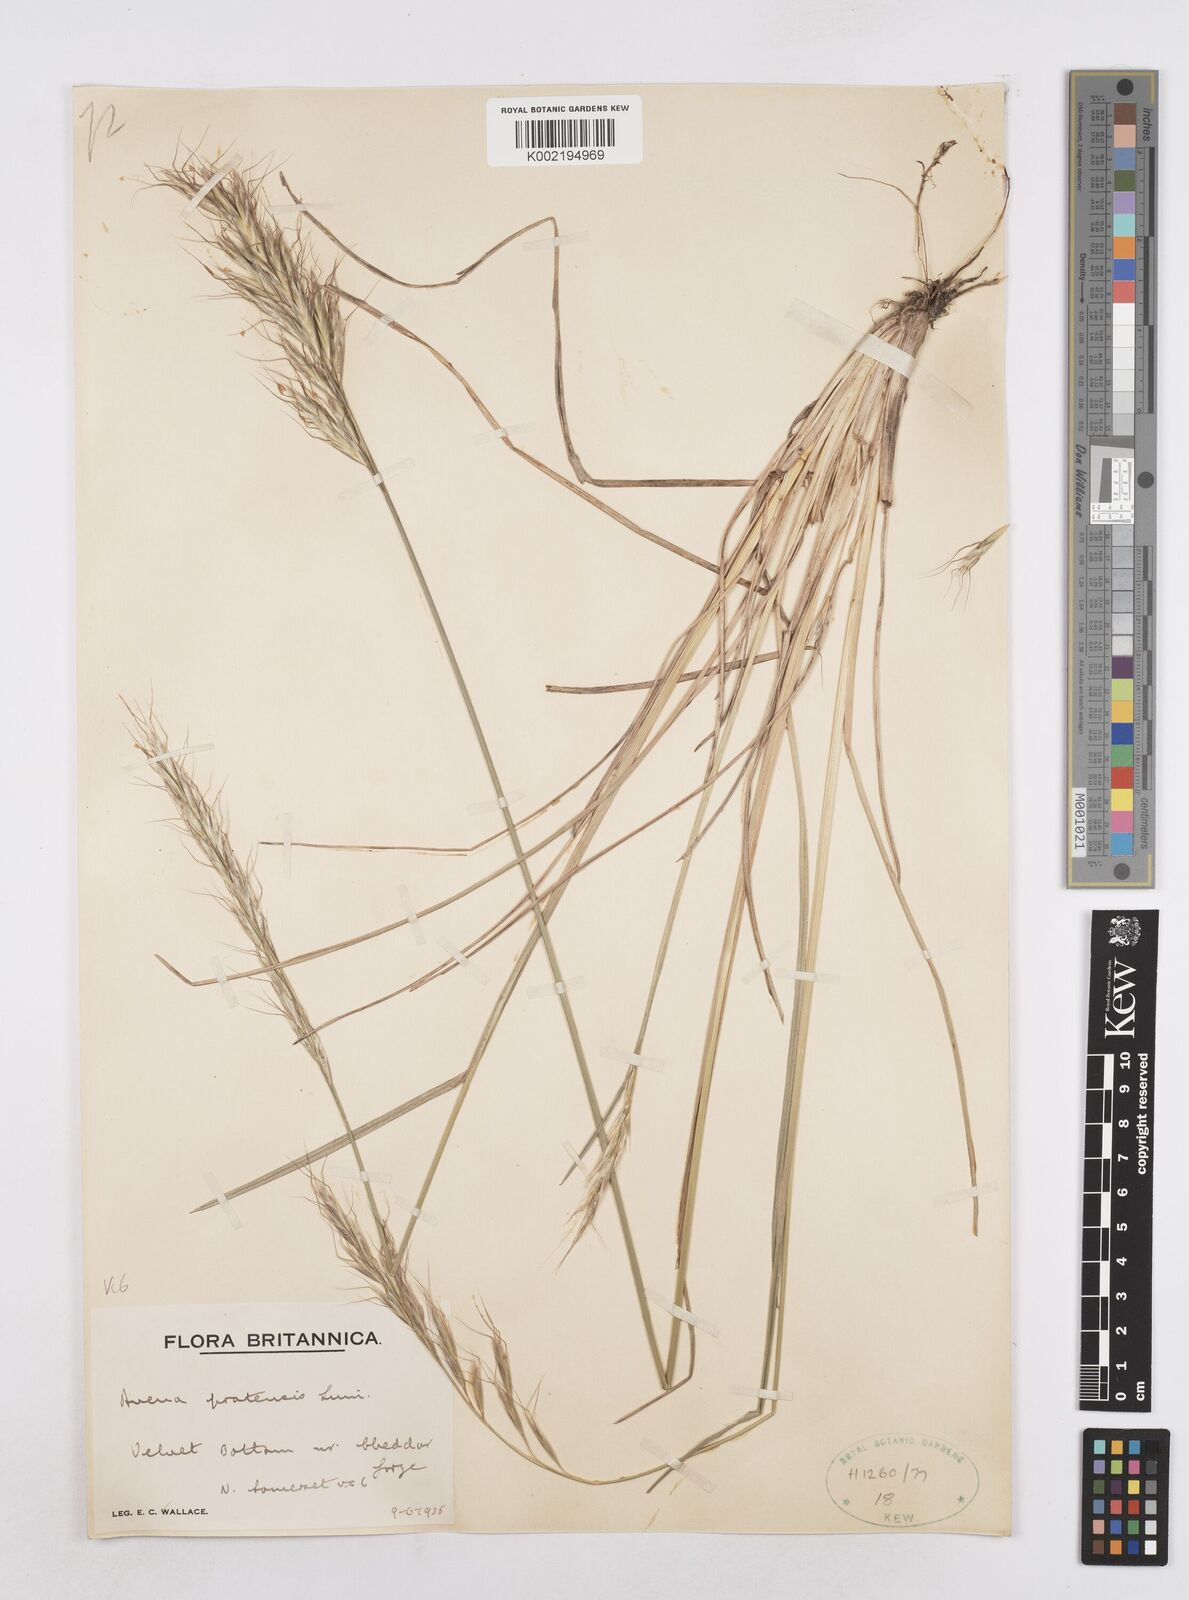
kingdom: Plantae
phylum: Tracheophyta
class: Liliopsida
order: Poales
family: Poaceae
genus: Helictochloa
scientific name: Helictochloa pratensis
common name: Meadow oat grass
